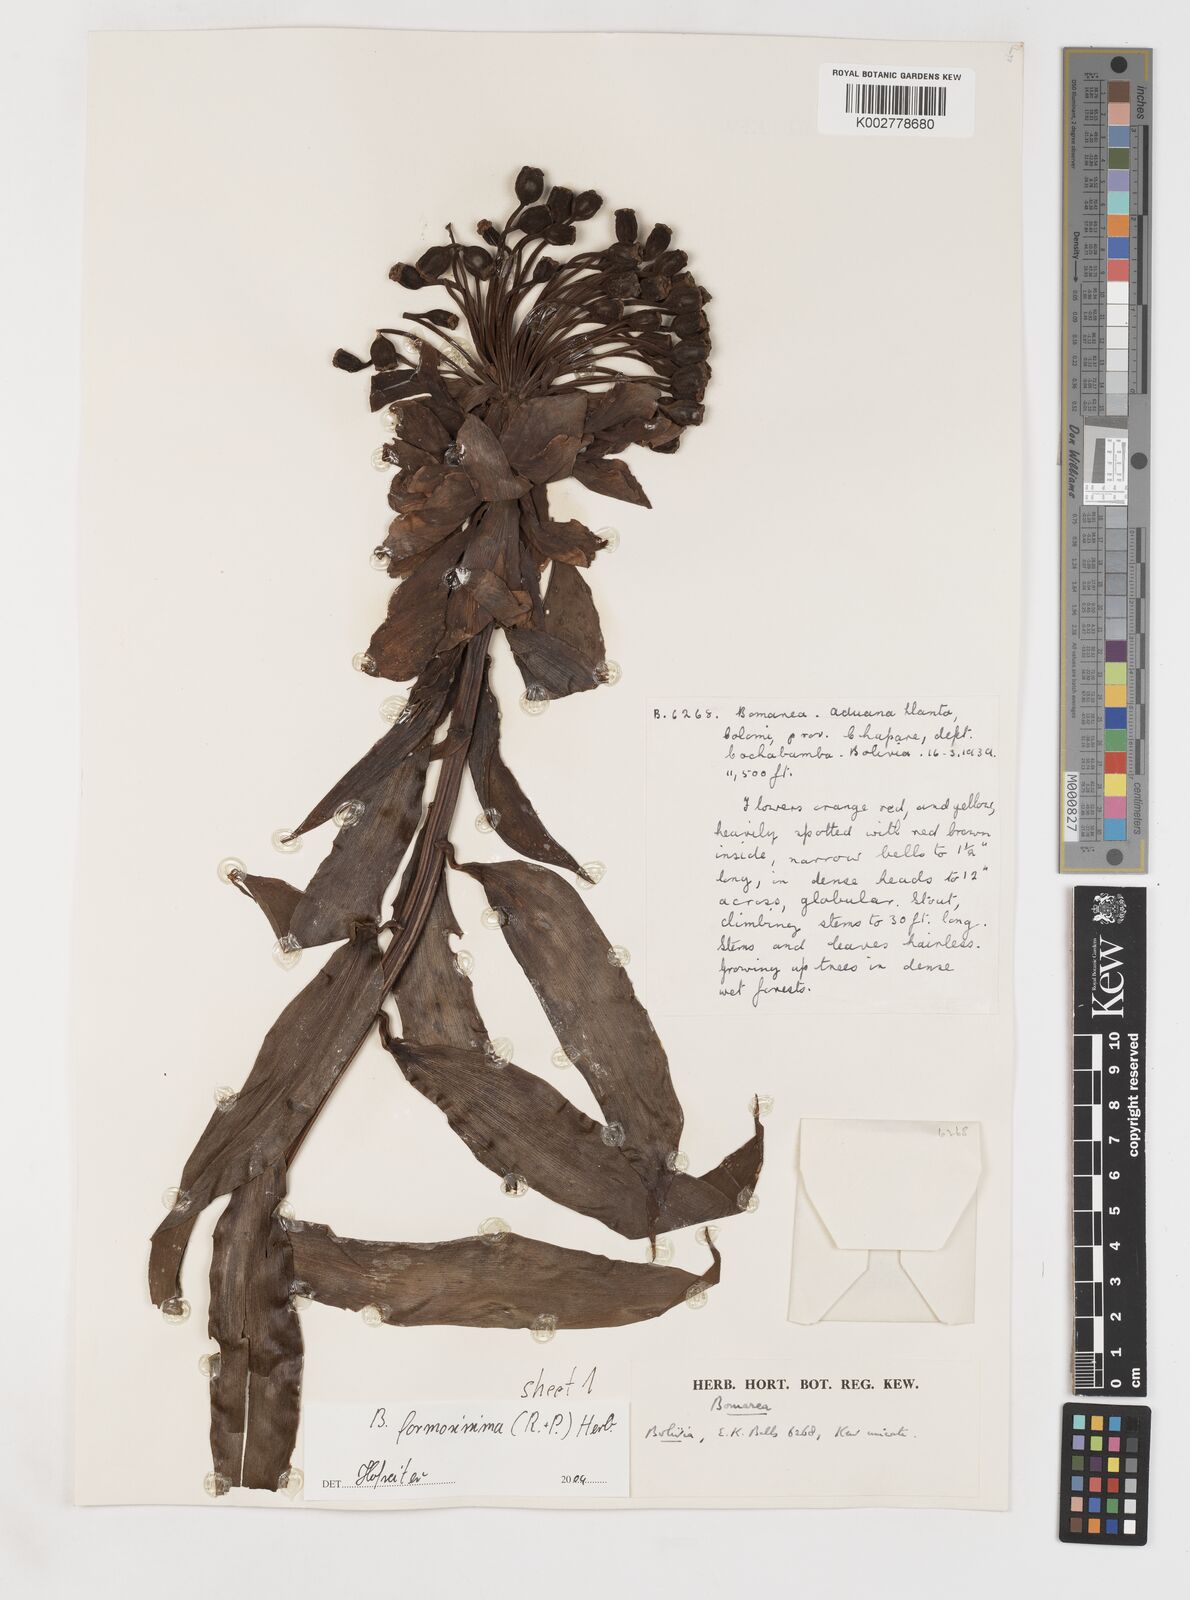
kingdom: Plantae
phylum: Tracheophyta
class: Liliopsida
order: Liliales
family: Alstroemeriaceae
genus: Bomarea
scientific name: Bomarea formosissima
